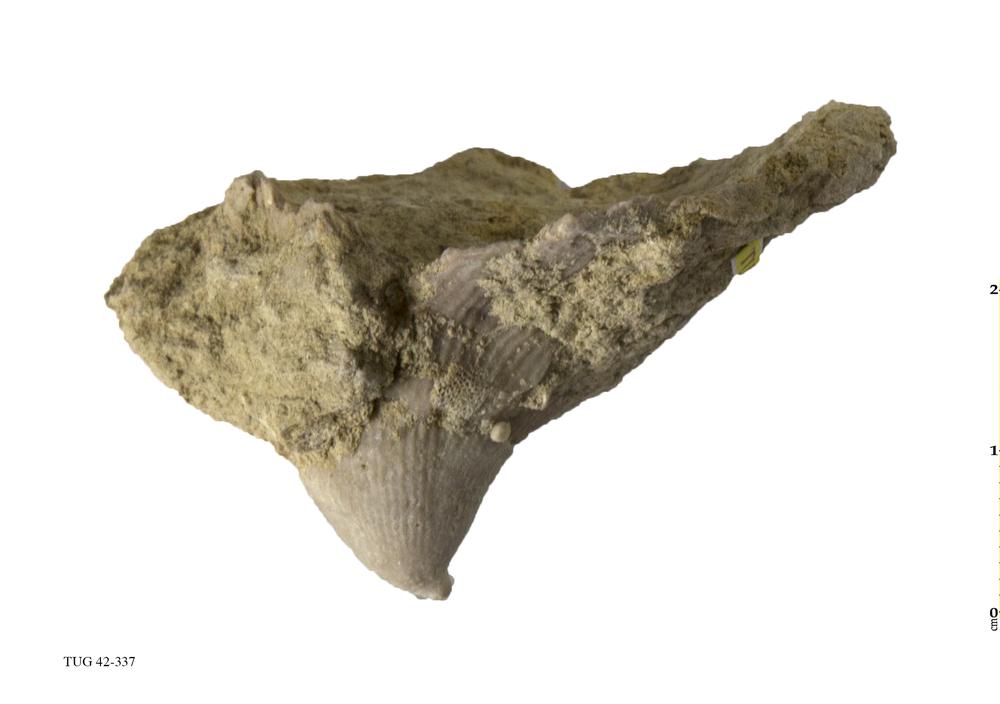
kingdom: Animalia
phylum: Cnidaria
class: Anthozoa
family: Streptelasmatidae
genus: Streptelasma
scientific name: Streptelasma corniculum
